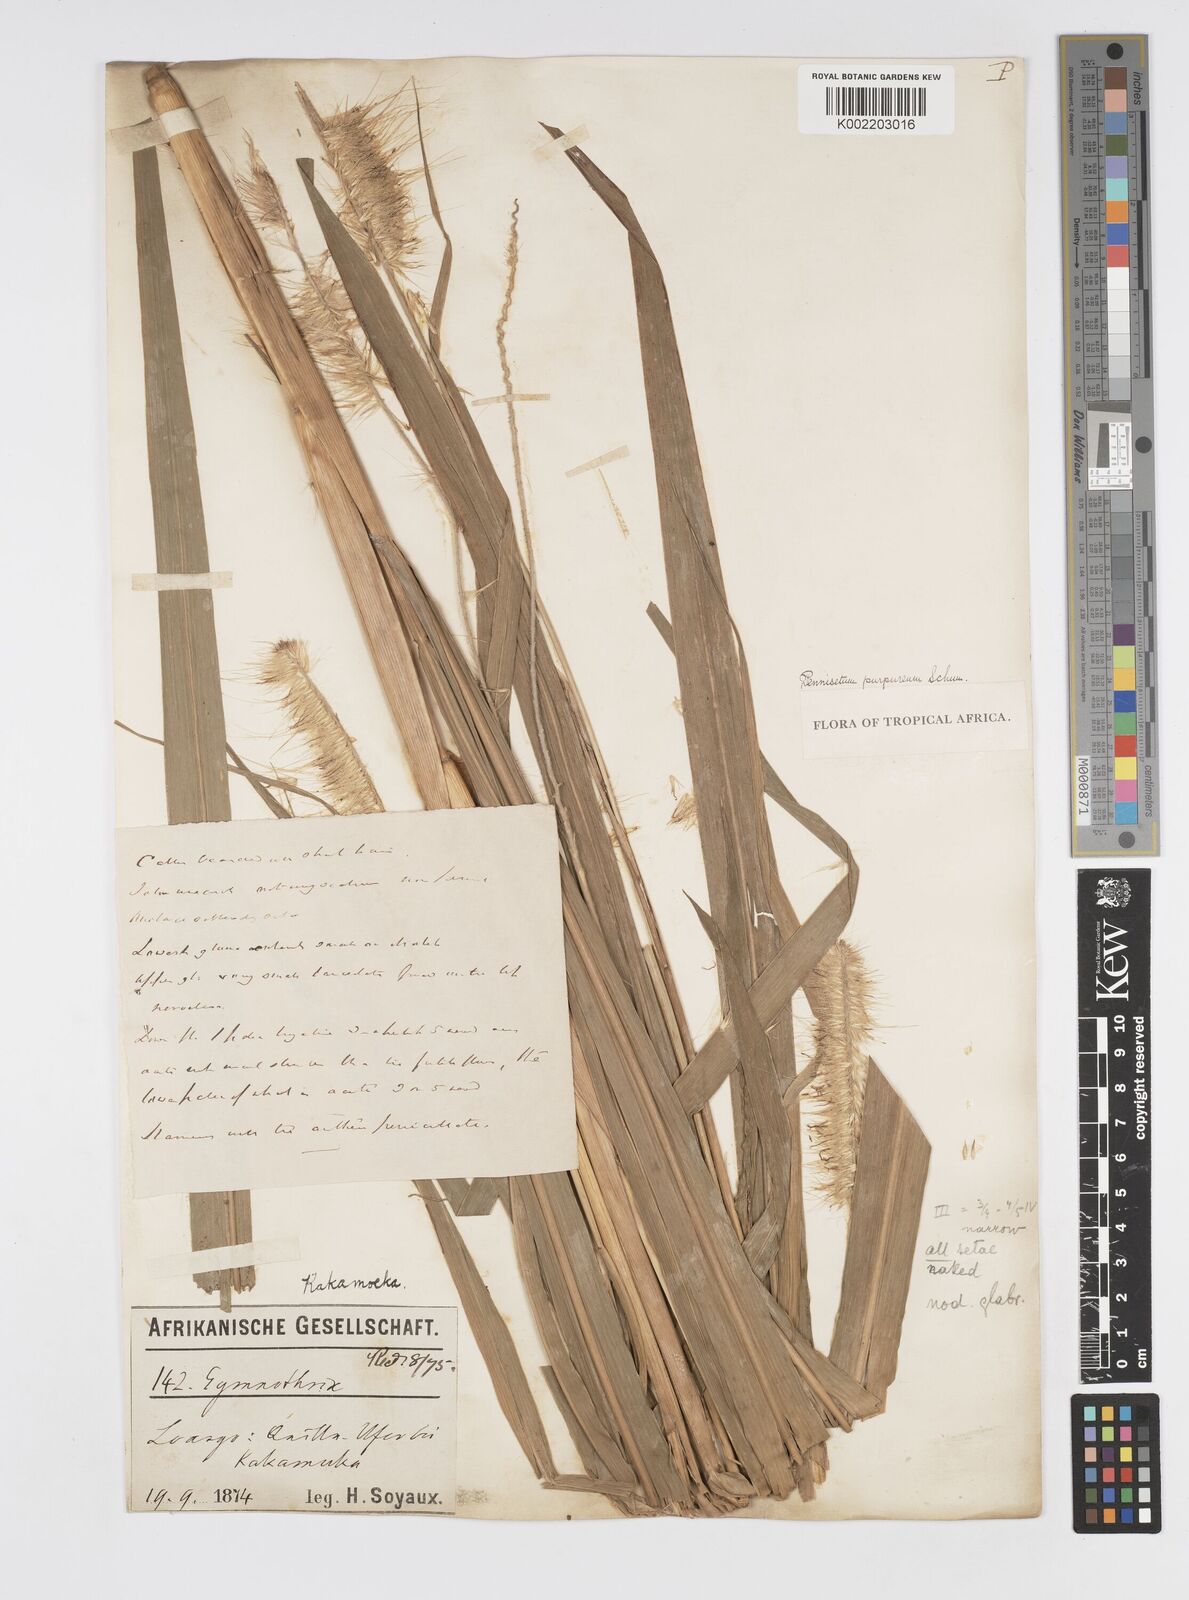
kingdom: Plantae
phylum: Tracheophyta
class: Liliopsida
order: Poales
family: Poaceae
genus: Cenchrus
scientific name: Cenchrus purpureus
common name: Elephant grass
